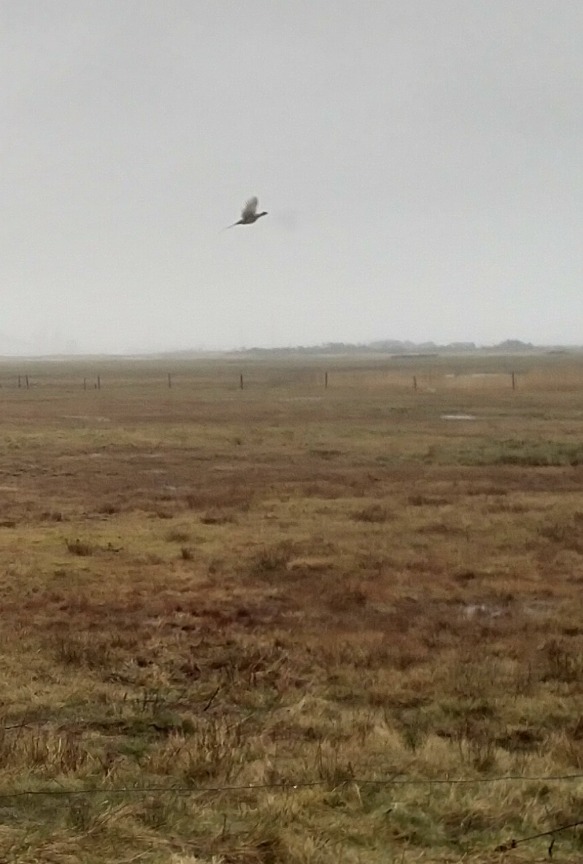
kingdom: Animalia
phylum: Chordata
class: Aves
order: Galliformes
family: Phasianidae
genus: Phasianus
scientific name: Phasianus colchicus
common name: Fasan
